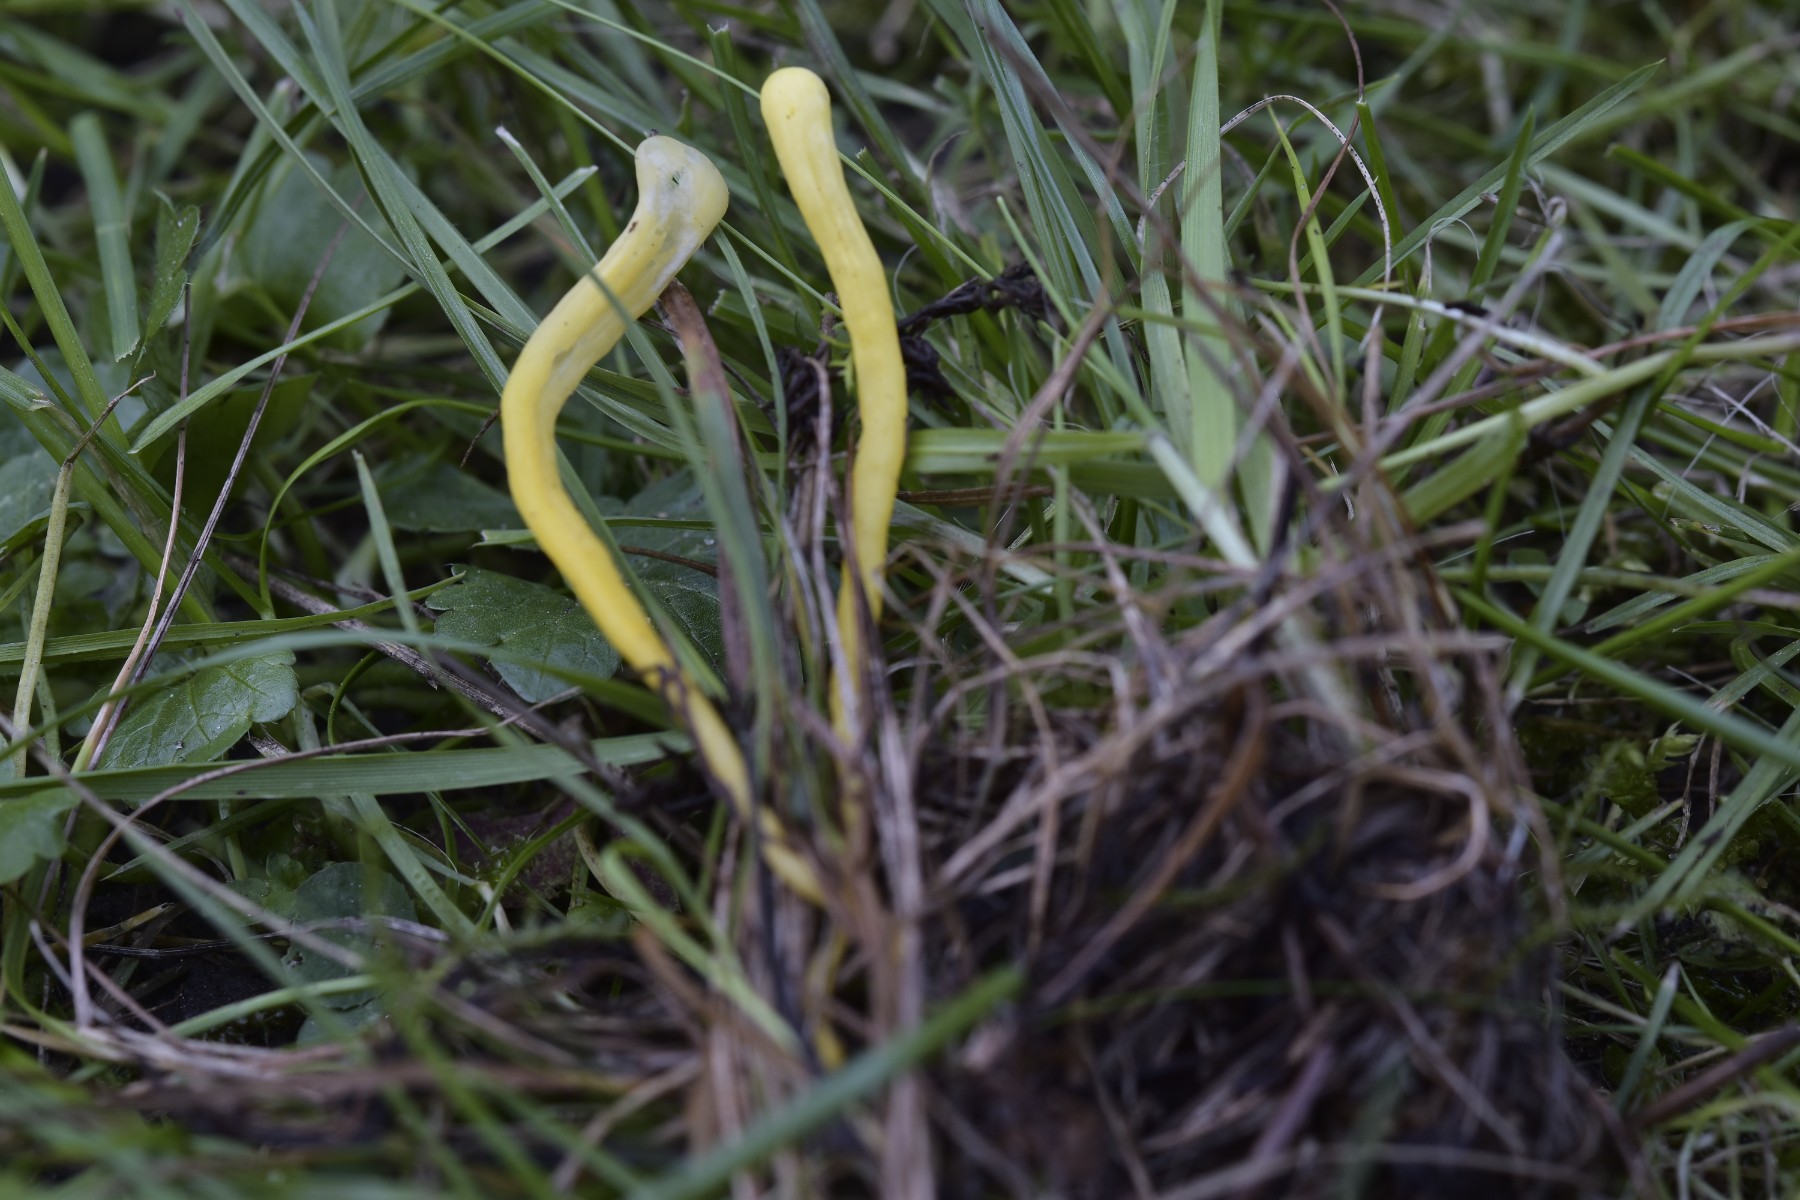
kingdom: Fungi
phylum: Basidiomycota
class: Agaricomycetes
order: Agaricales
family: Clavariaceae
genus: Clavulinopsis
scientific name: Clavulinopsis helvola
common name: orangegul køllesvamp
